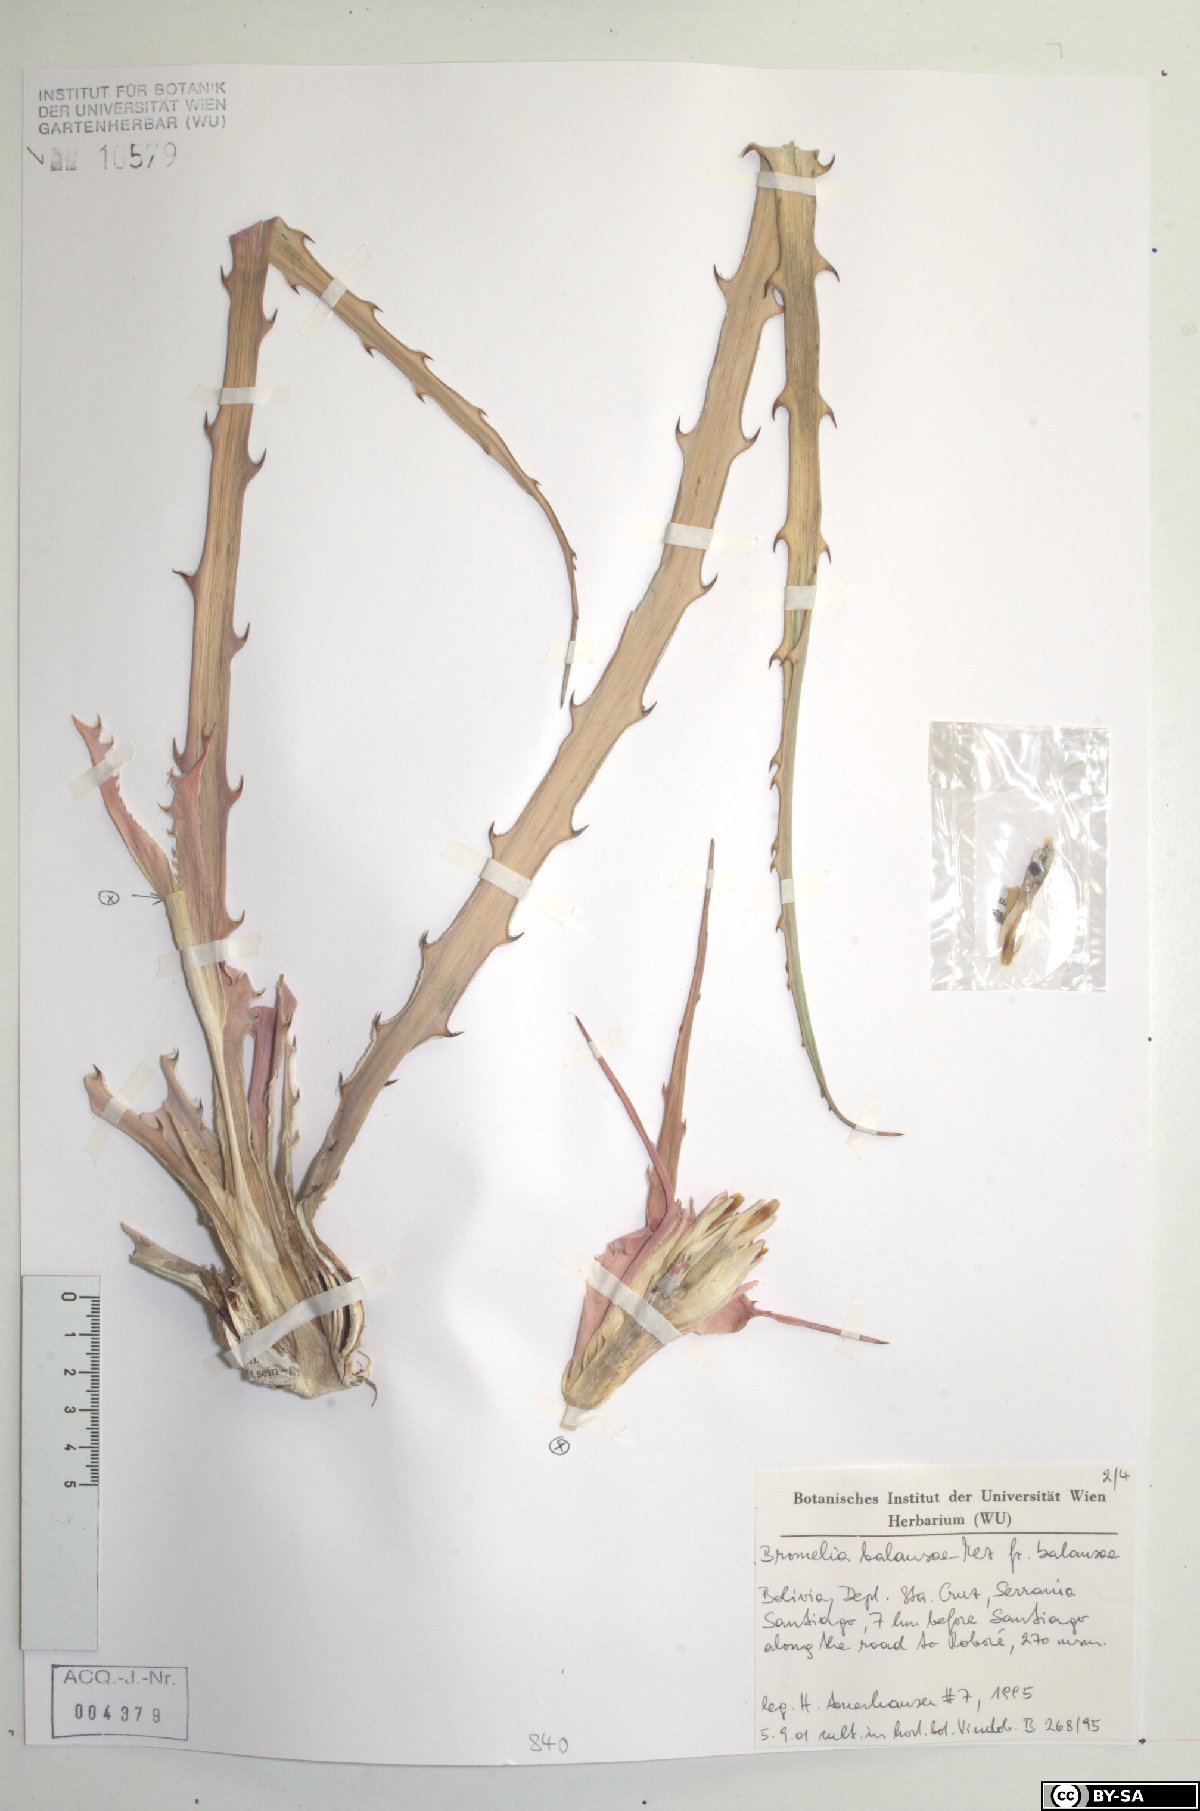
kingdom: Plantae
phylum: Tracheophyta
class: Liliopsida
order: Poales
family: Bromeliaceae
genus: Bromelia
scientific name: Bromelia balansae
